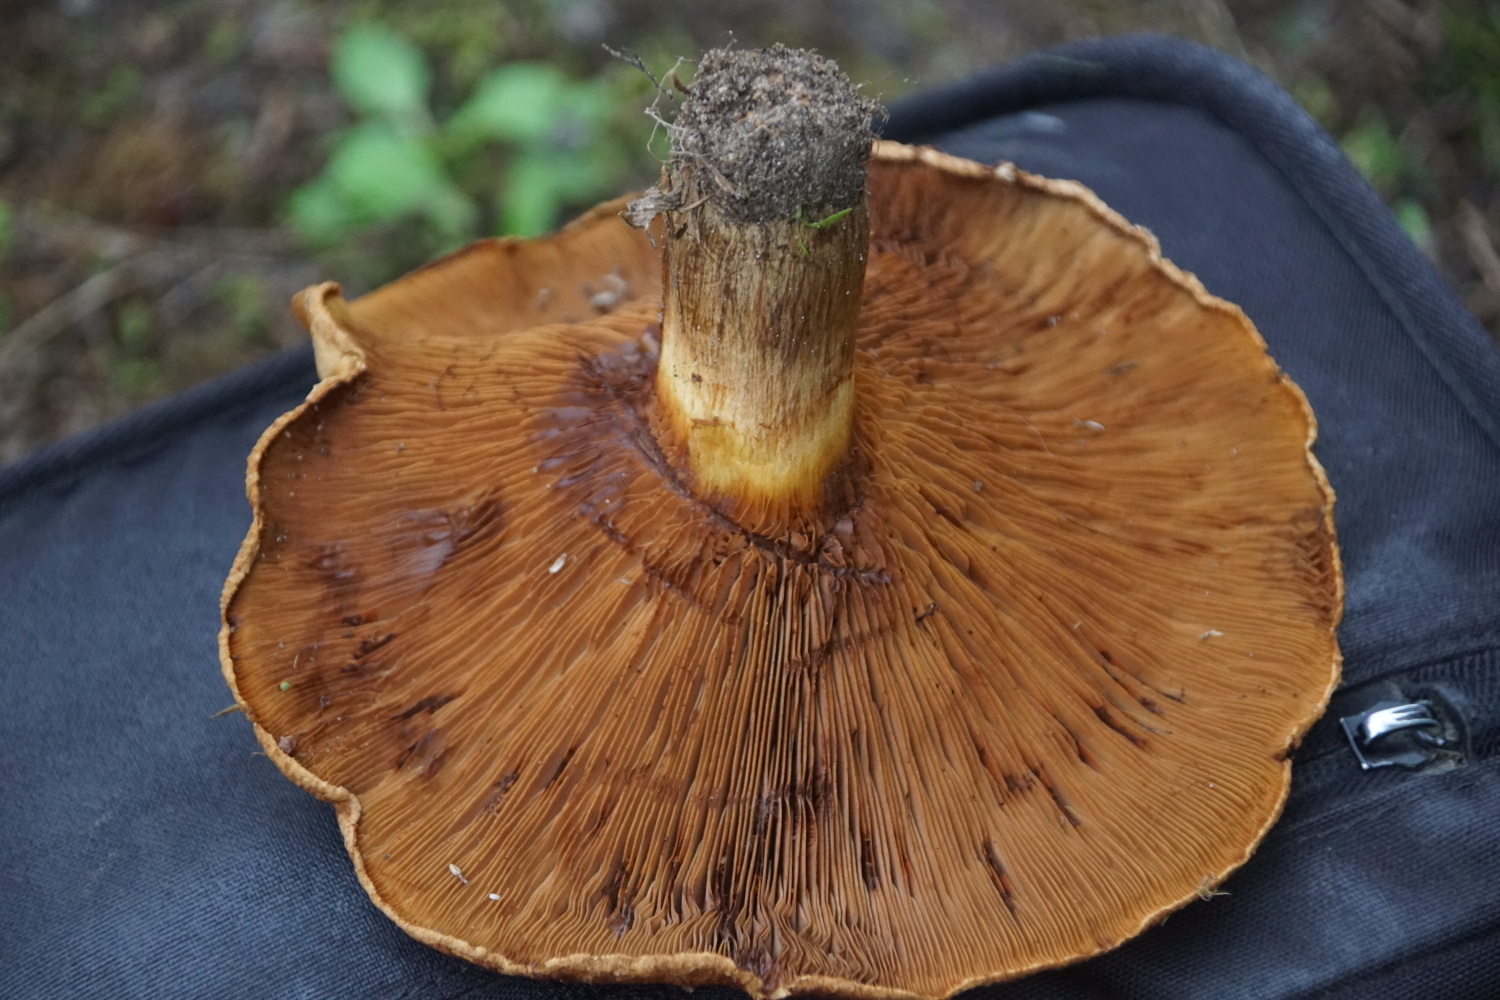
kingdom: Fungi
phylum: Basidiomycota
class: Agaricomycetes
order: Boletales
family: Paxillaceae
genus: Paxillus
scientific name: Paxillus obscurisporus
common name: mahognisporet netbladhat
